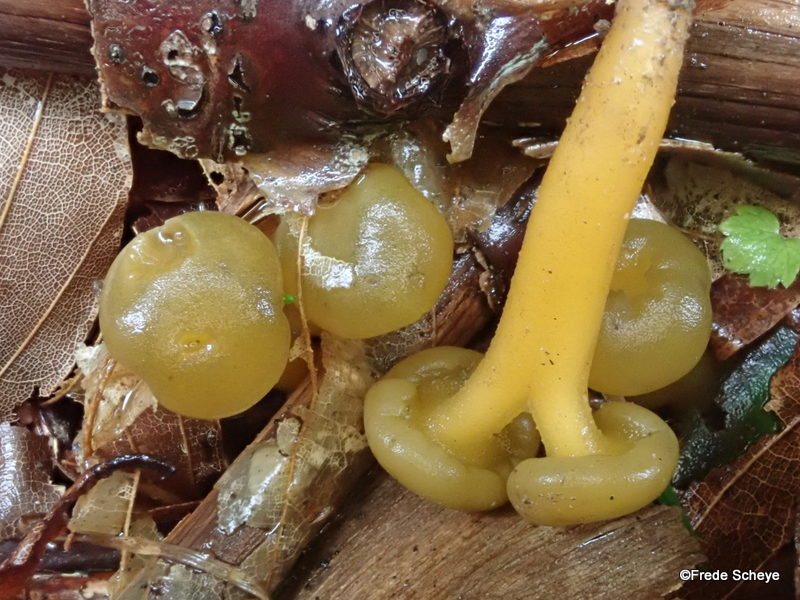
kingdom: Fungi
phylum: Ascomycota
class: Leotiomycetes
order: Leotiales
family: Leotiaceae
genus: Leotia
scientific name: Leotia lubrica
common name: ravsvamp
